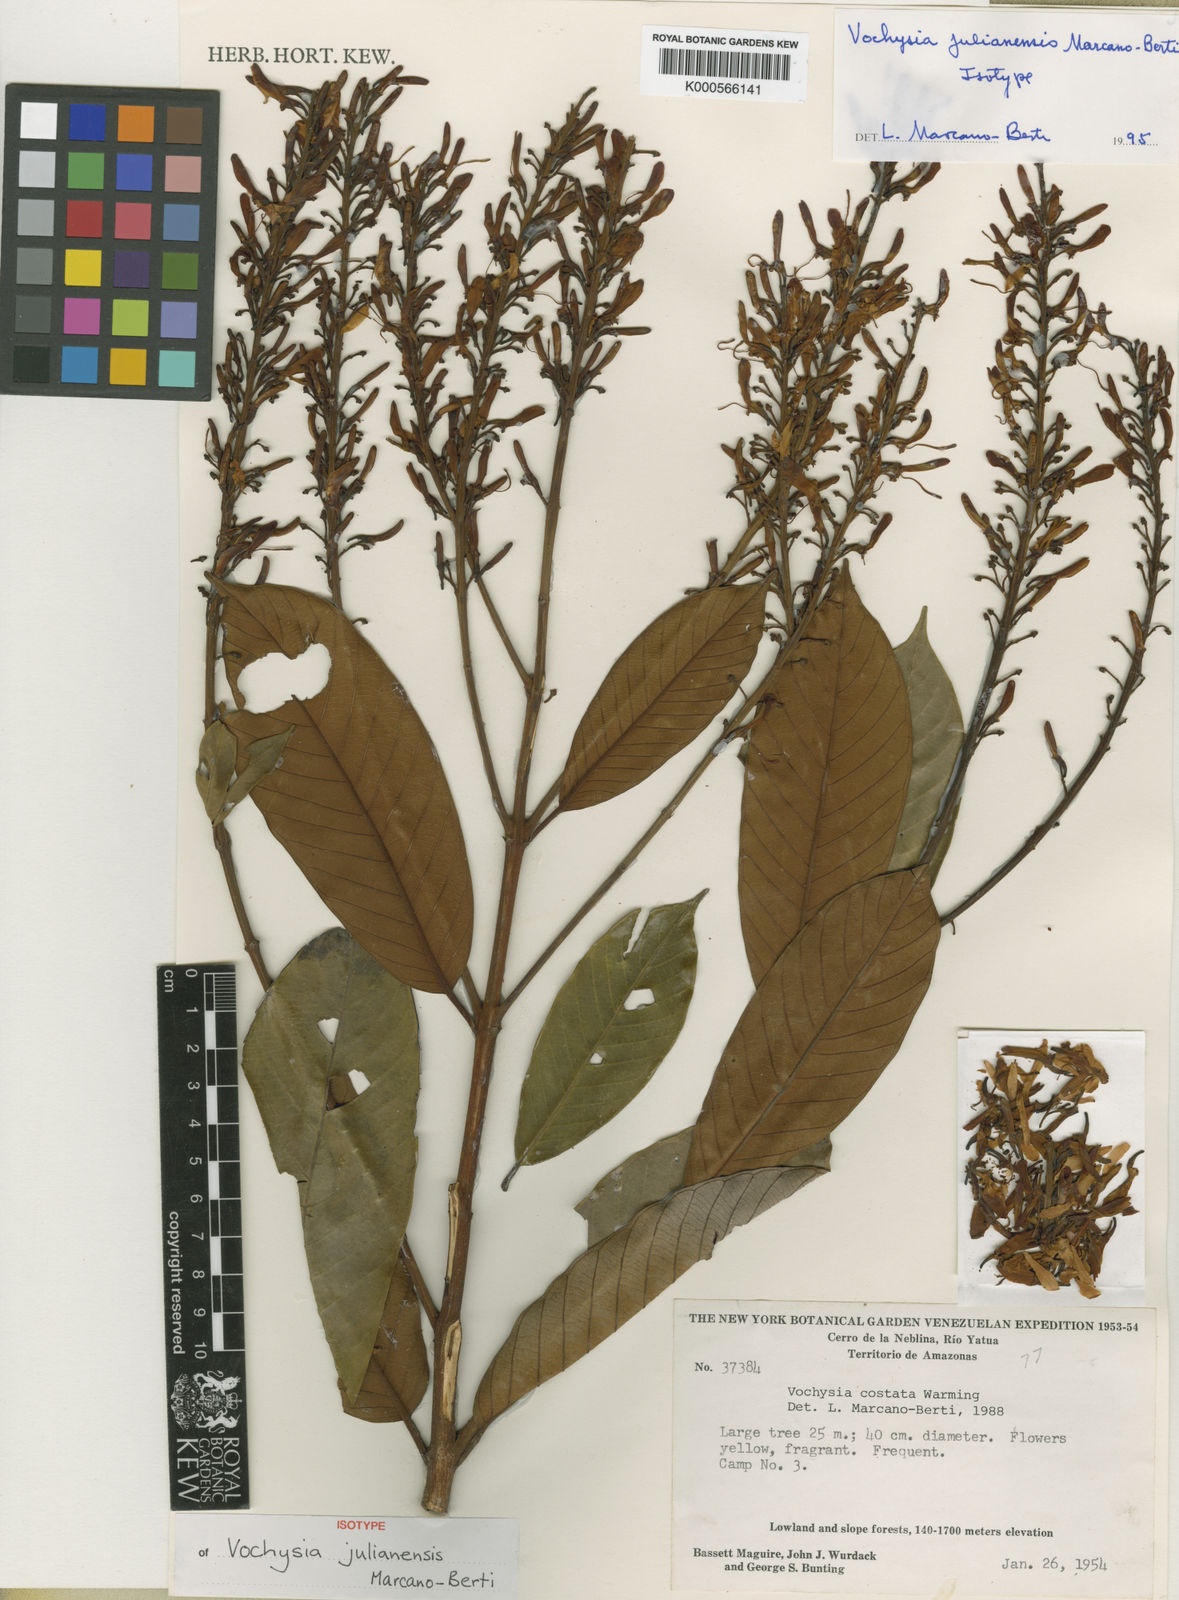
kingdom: Plantae
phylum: Tracheophyta
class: Magnoliopsida
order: Myrtales
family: Vochysiaceae
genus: Vochysia
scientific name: Vochysia julianensis
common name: Julian vochysia
